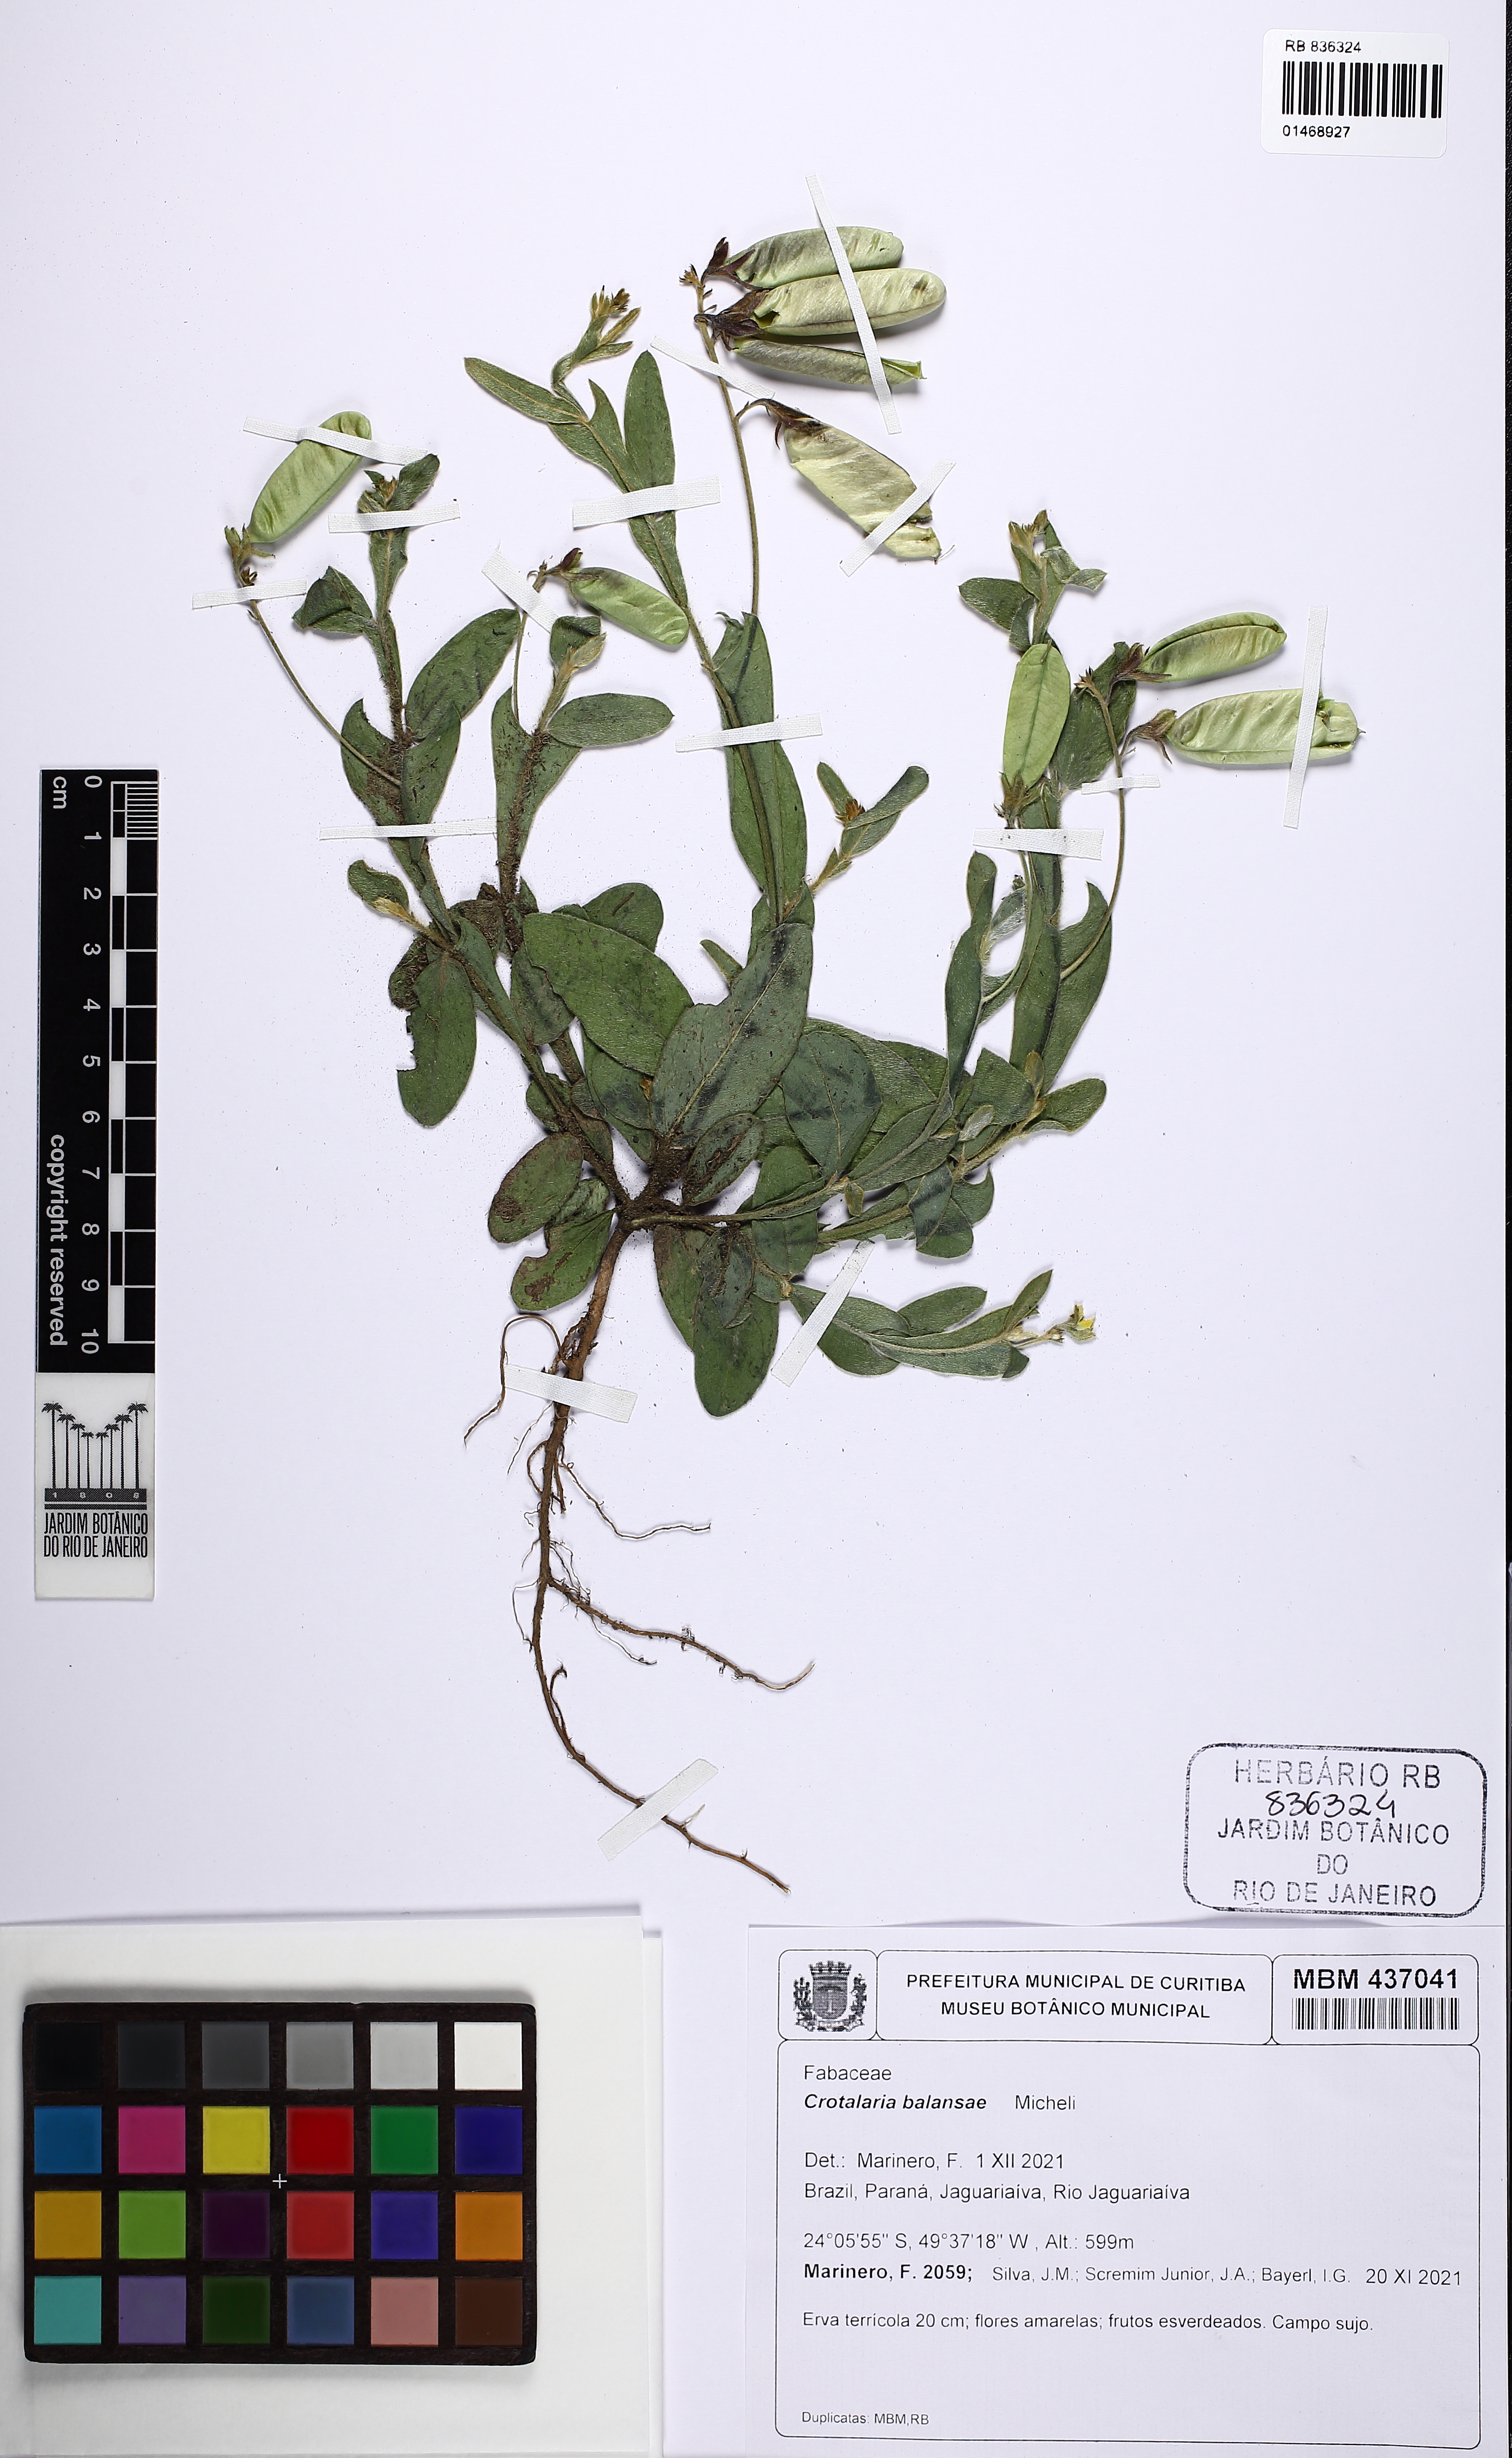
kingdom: Plantae
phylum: Tracheophyta
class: Magnoliopsida
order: Fabales
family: Fabaceae
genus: Crotalaria
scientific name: Crotalaria balansae
